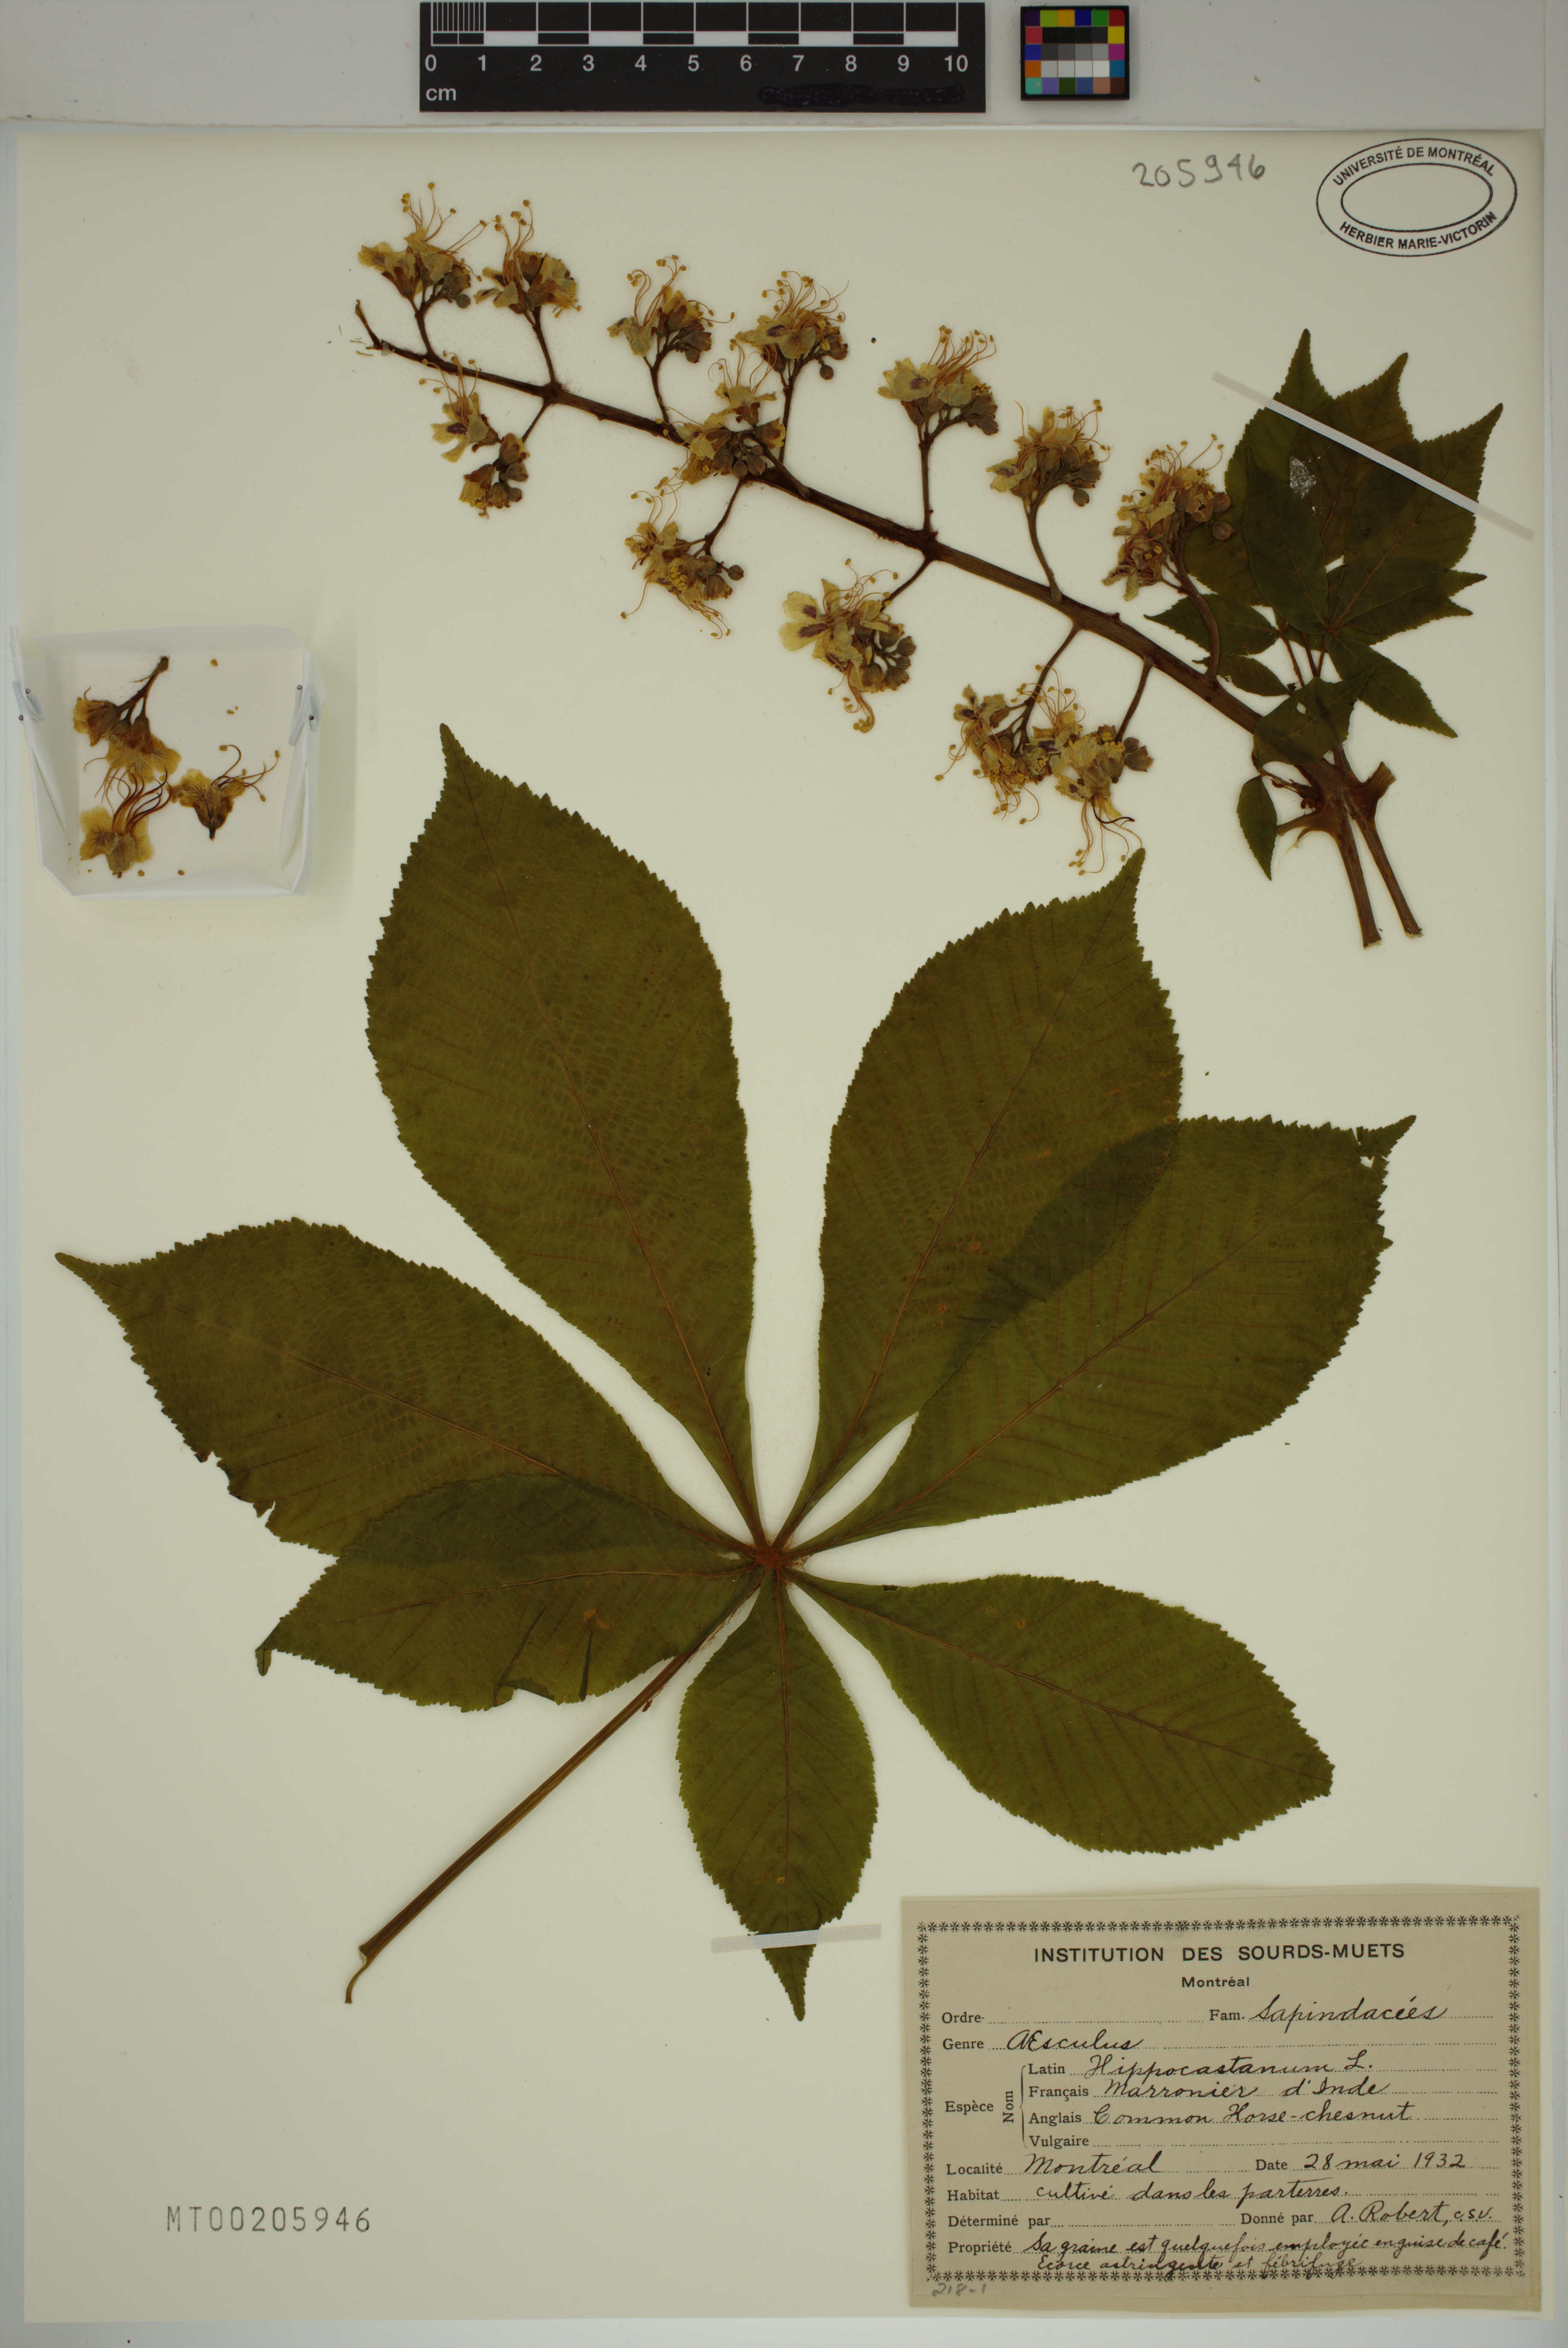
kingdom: Plantae
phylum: Tracheophyta
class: Magnoliopsida
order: Sapindales
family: Sapindaceae
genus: Aesculus
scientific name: Aesculus hippocastanum
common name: Horse-chestnut
